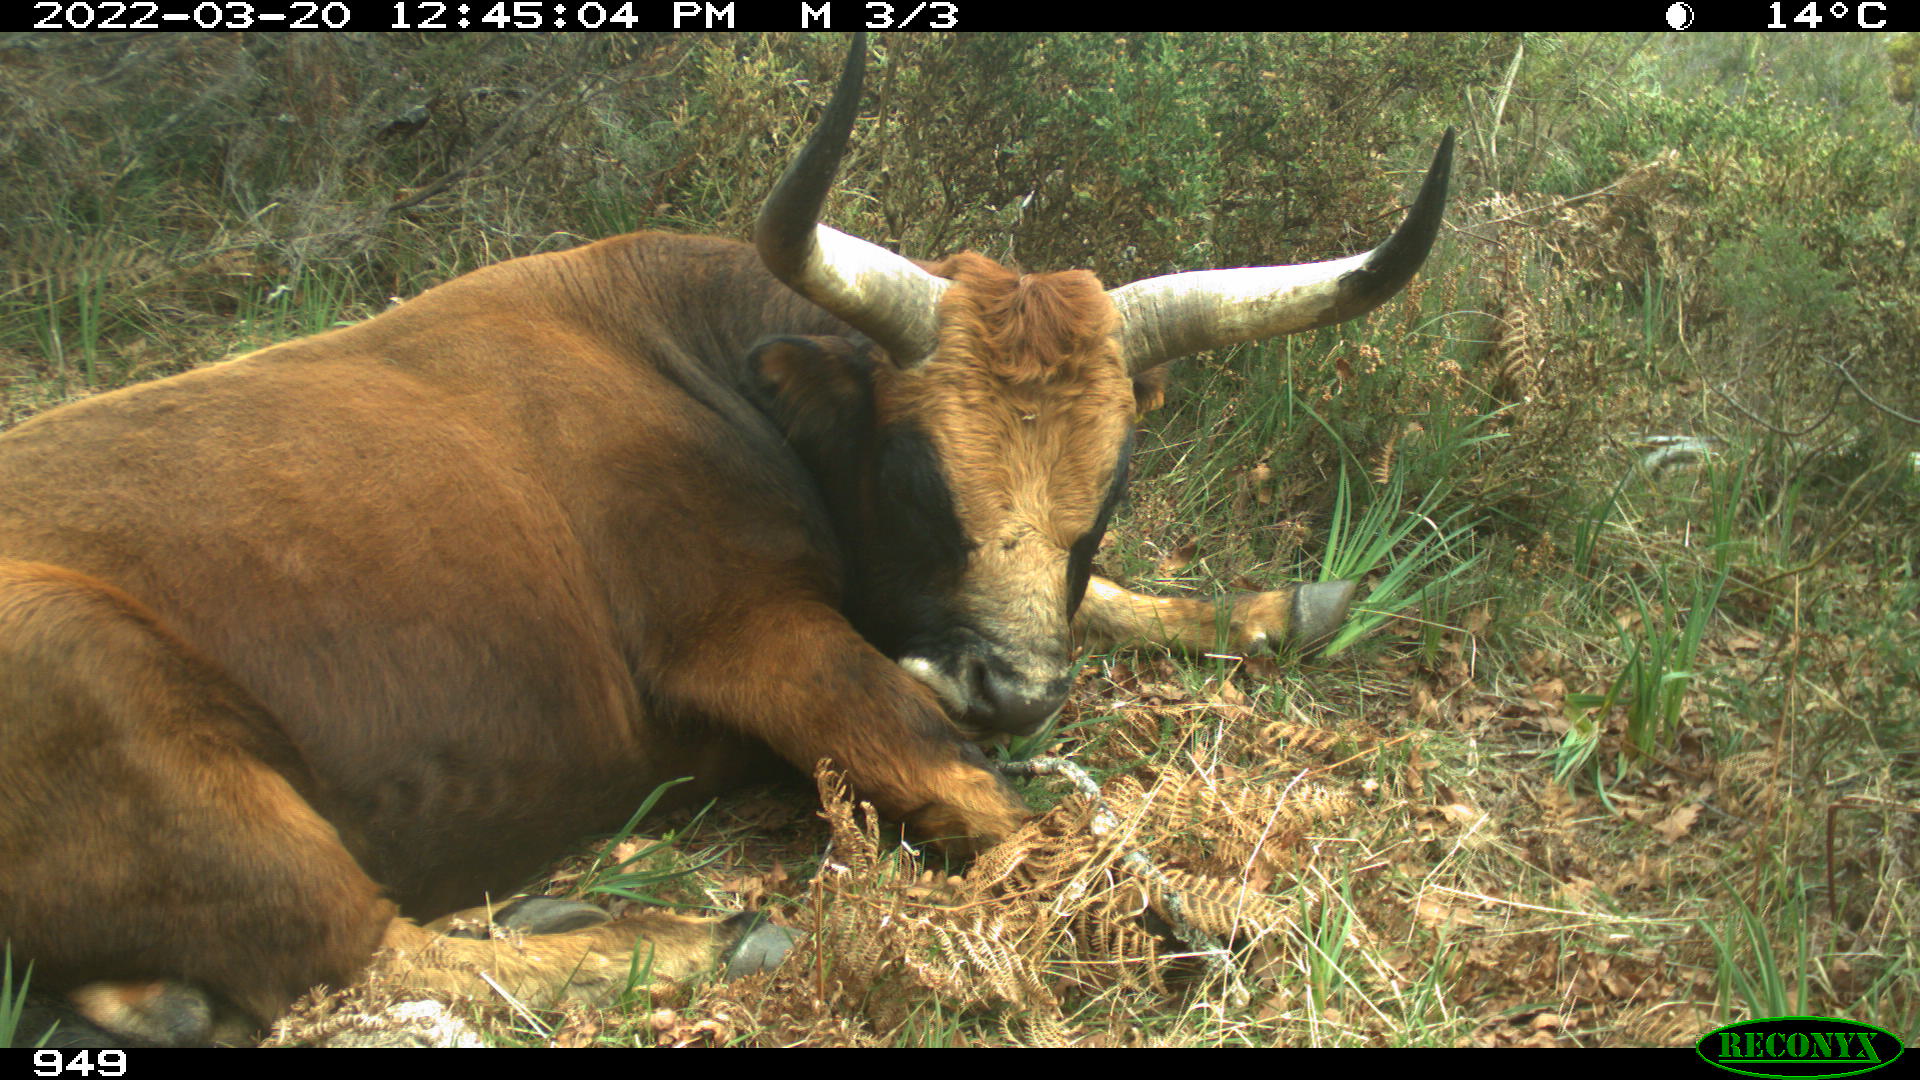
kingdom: Animalia
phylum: Chordata
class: Mammalia
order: Artiodactyla
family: Bovidae
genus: Bos
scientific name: Bos taurus
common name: Domesticated cattle
